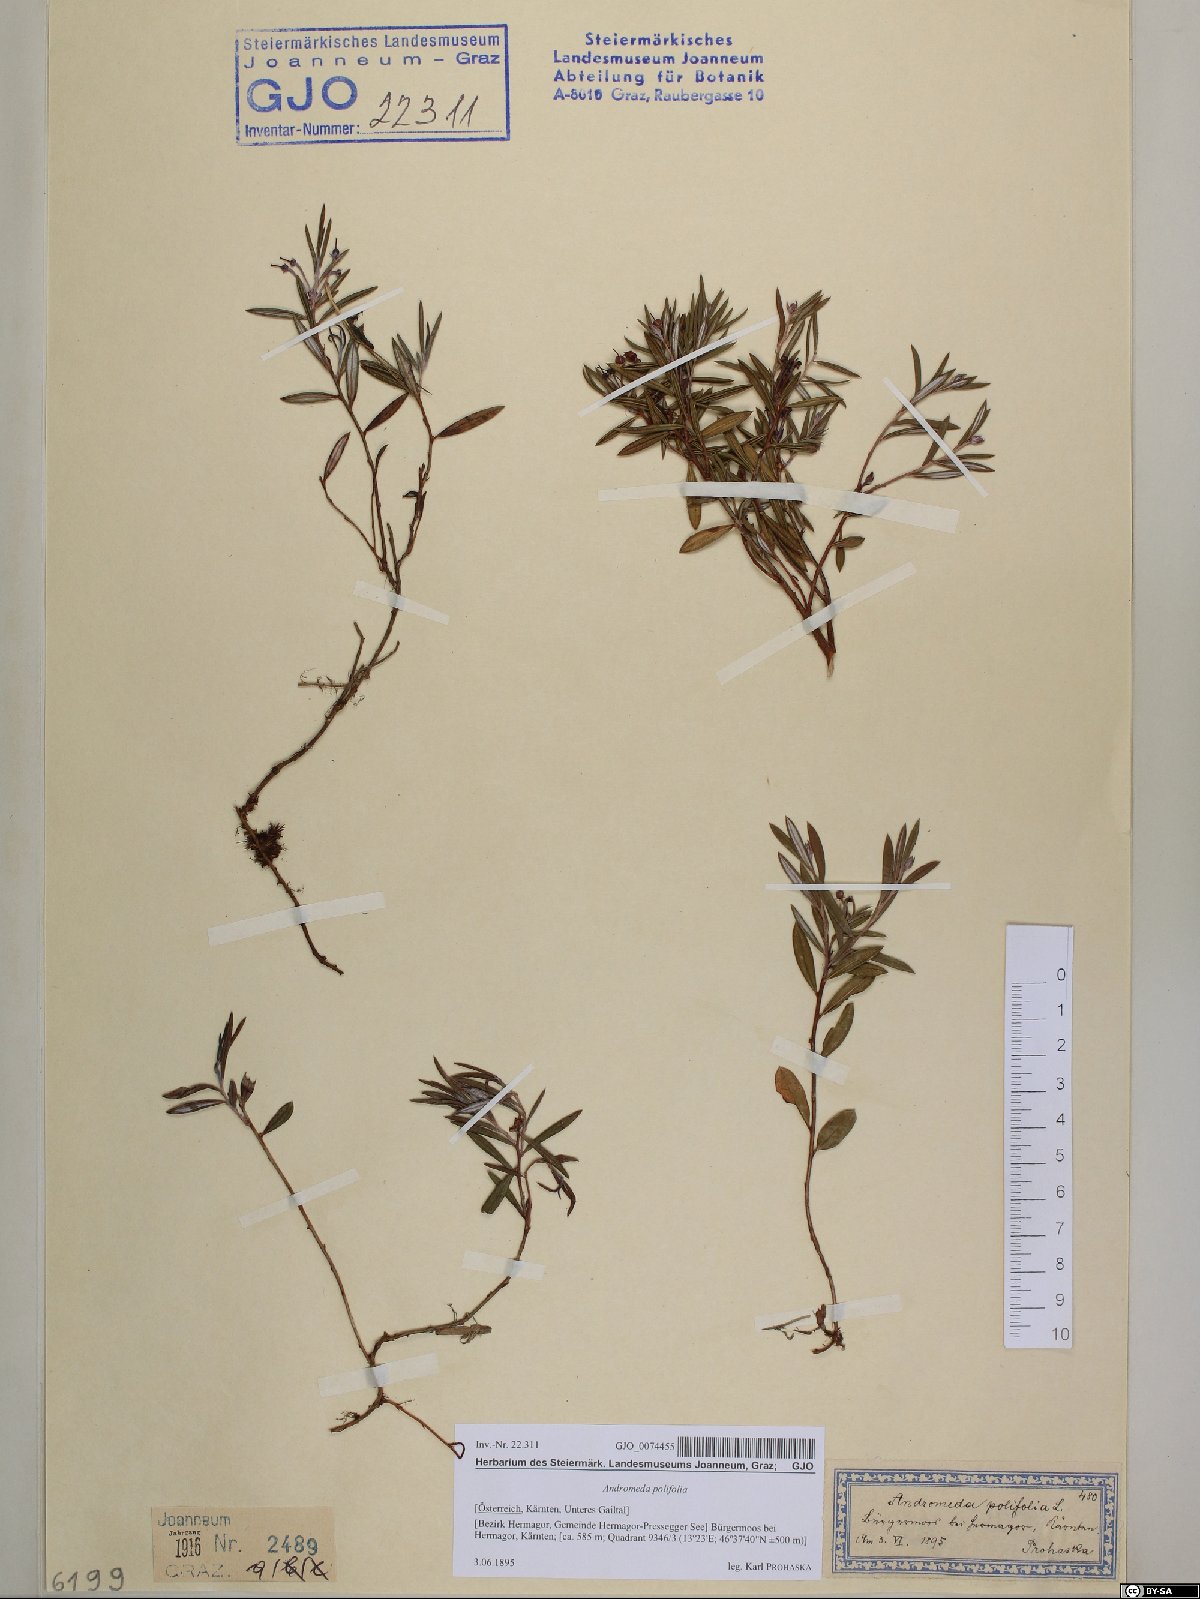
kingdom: Plantae
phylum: Tracheophyta
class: Magnoliopsida
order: Ericales
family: Ericaceae
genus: Andromeda
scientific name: Andromeda polifolia
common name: Bog-rosemary
